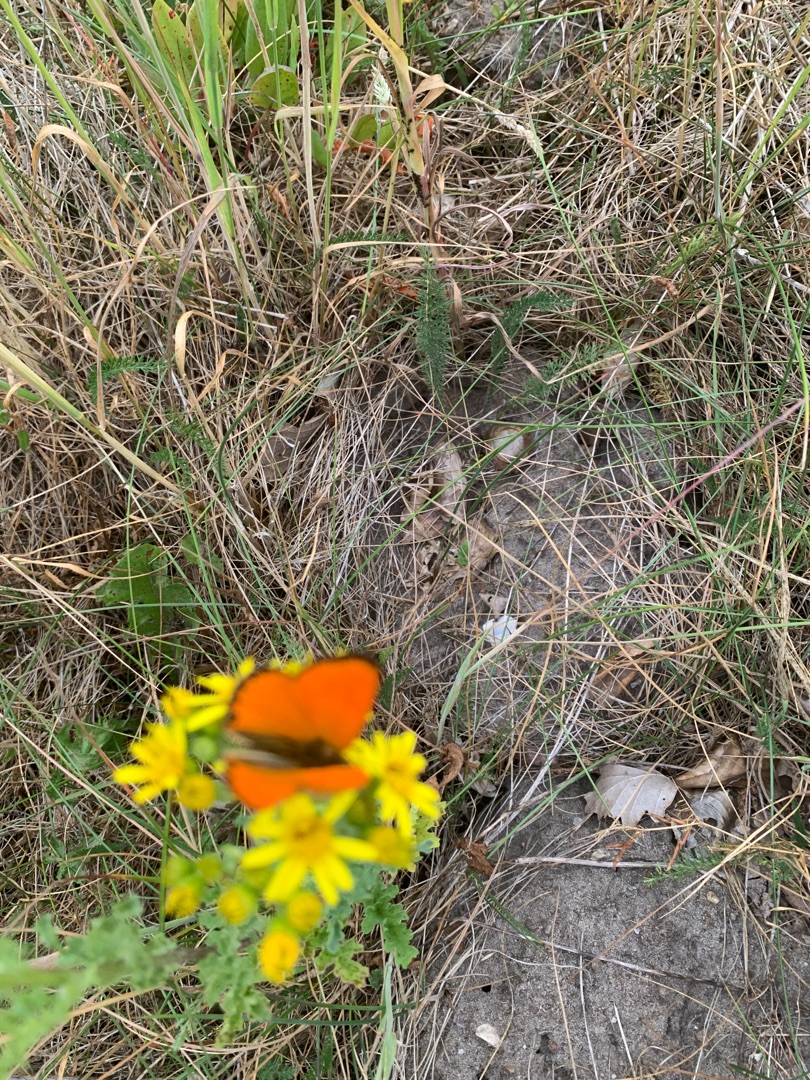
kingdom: Animalia
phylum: Arthropoda
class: Insecta
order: Lepidoptera
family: Lycaenidae
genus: Lycaena
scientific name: Lycaena virgaureae
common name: Dukatsommerfugl
